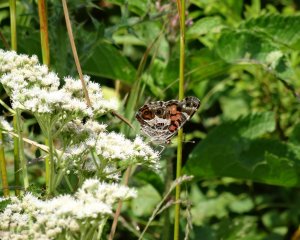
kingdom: Animalia
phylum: Arthropoda
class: Insecta
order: Lepidoptera
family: Nymphalidae
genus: Vanessa
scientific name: Vanessa virginiensis
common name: American Lady
